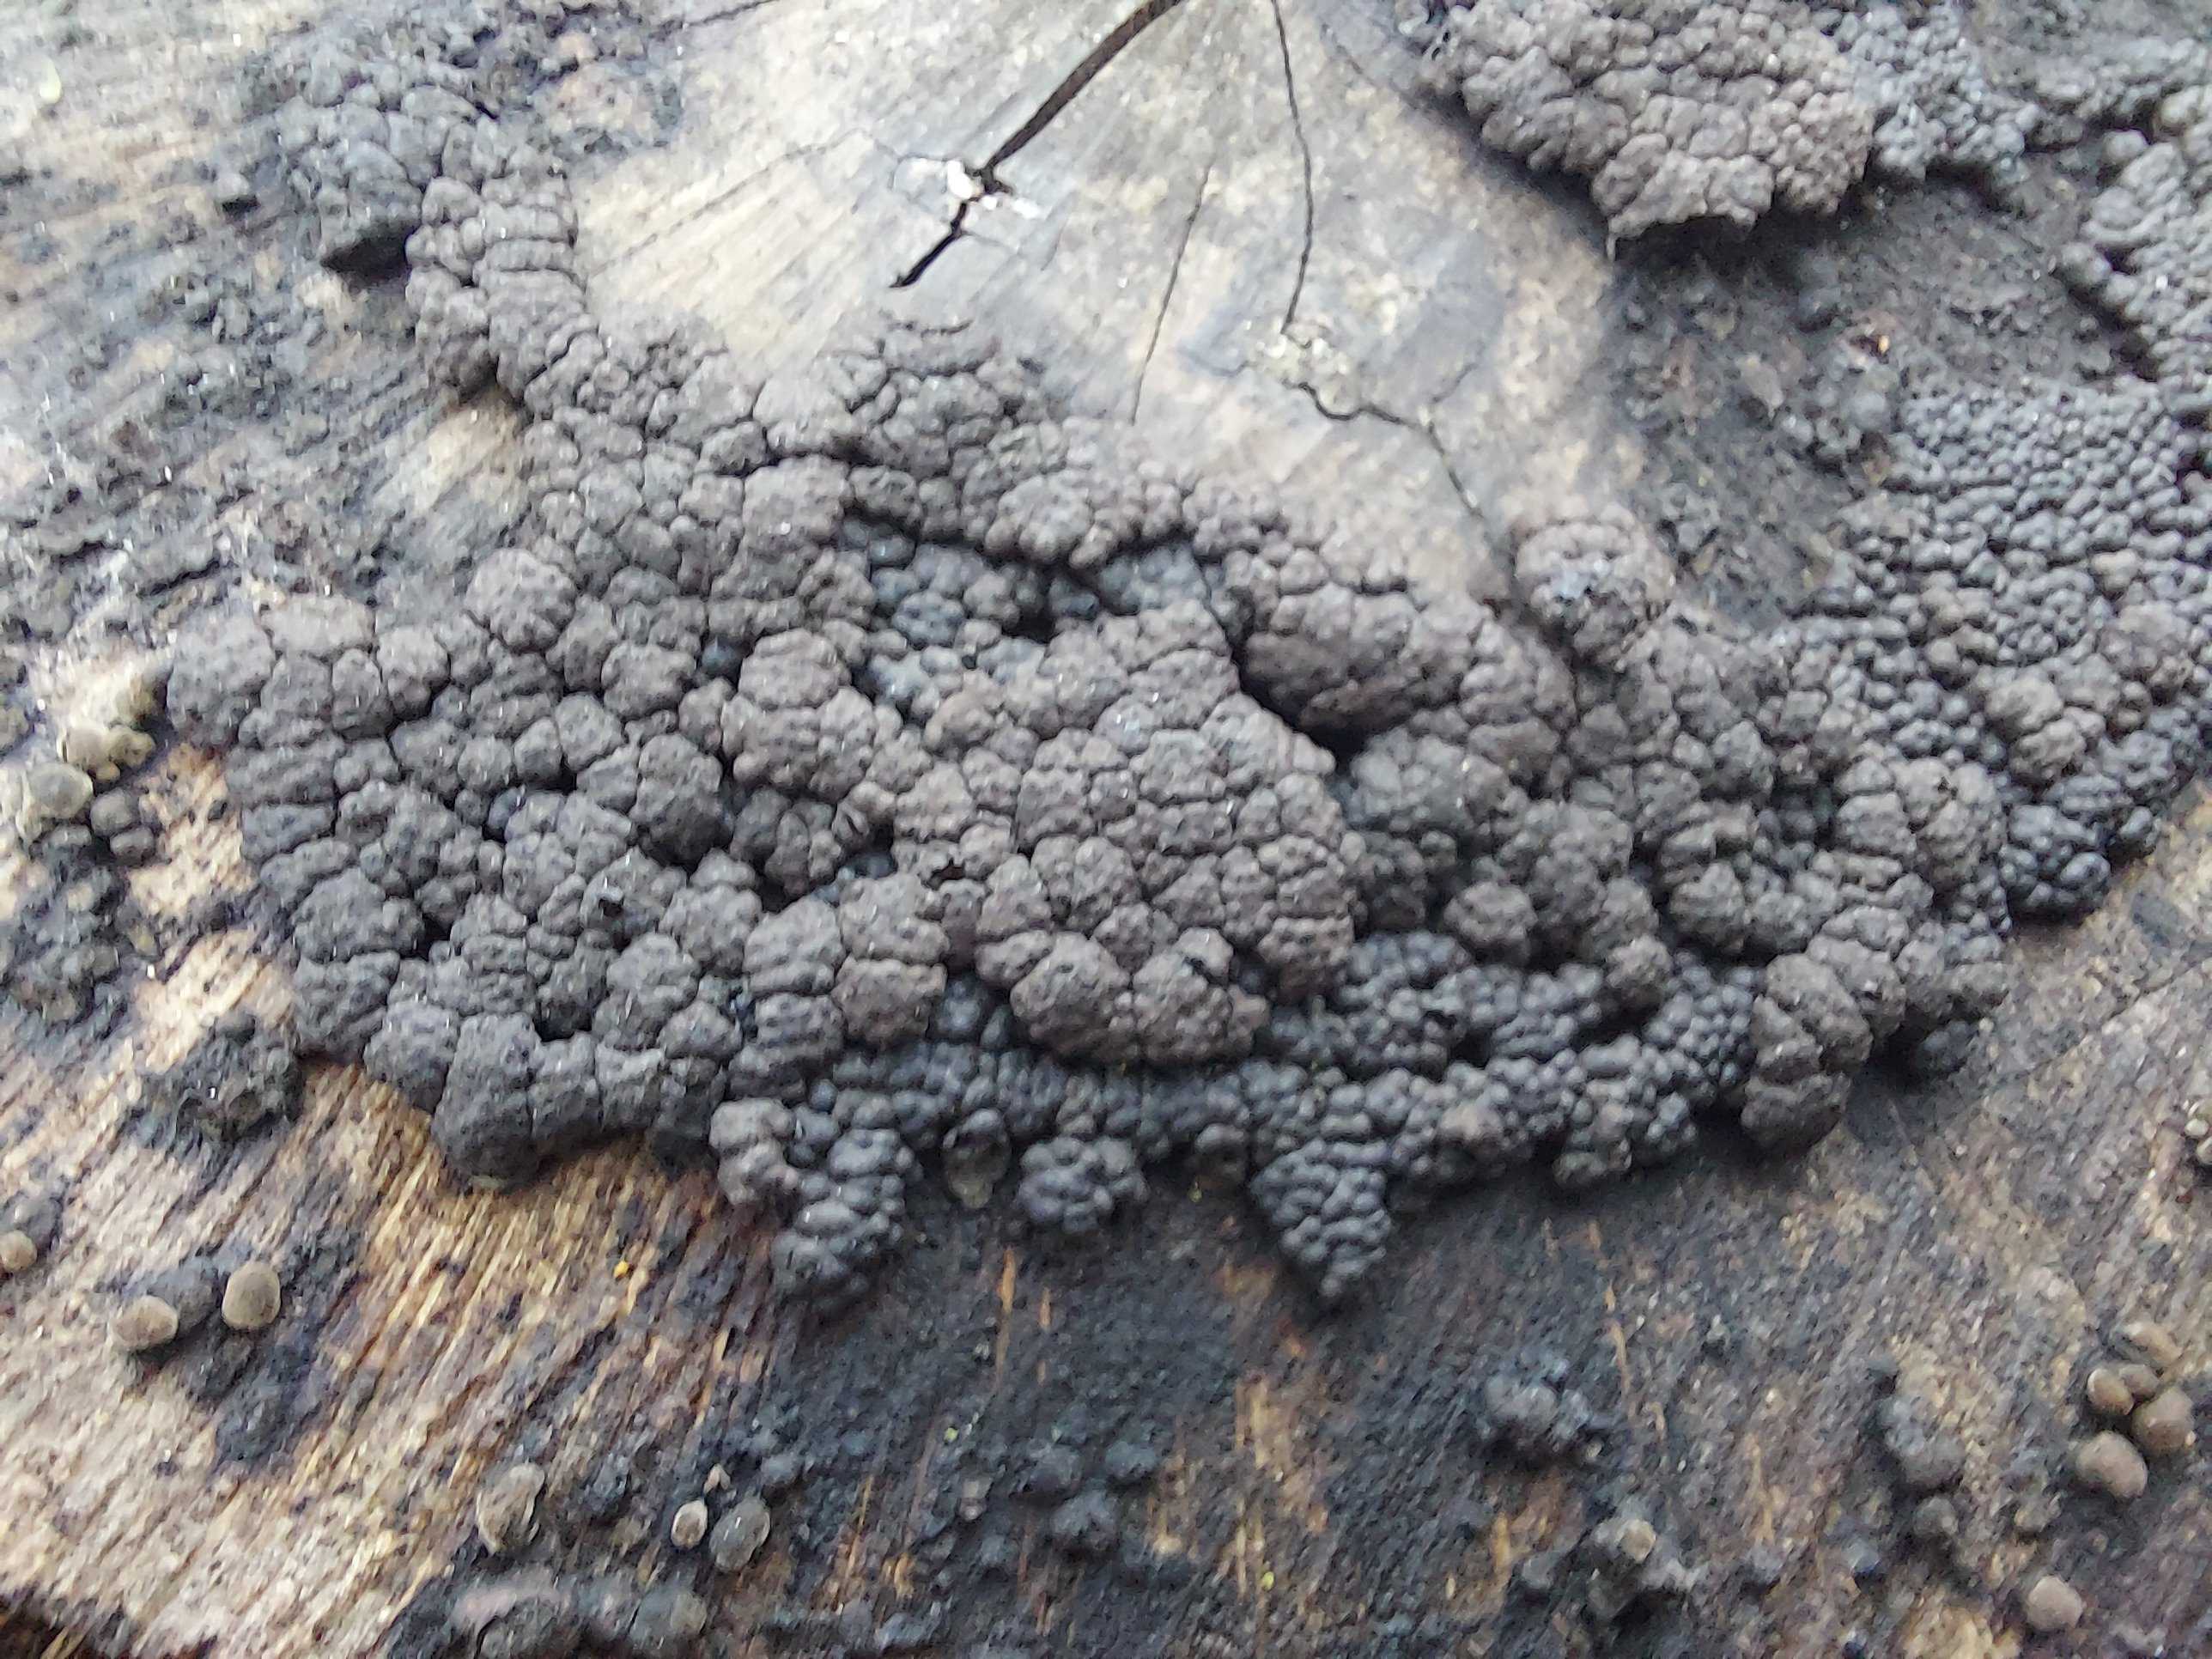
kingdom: Fungi
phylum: Ascomycota
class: Sordariomycetes
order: Xylariales
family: Hypoxylaceae
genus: Jackrogersella
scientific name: Jackrogersella cohaerens
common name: sammenflydende kulbær
